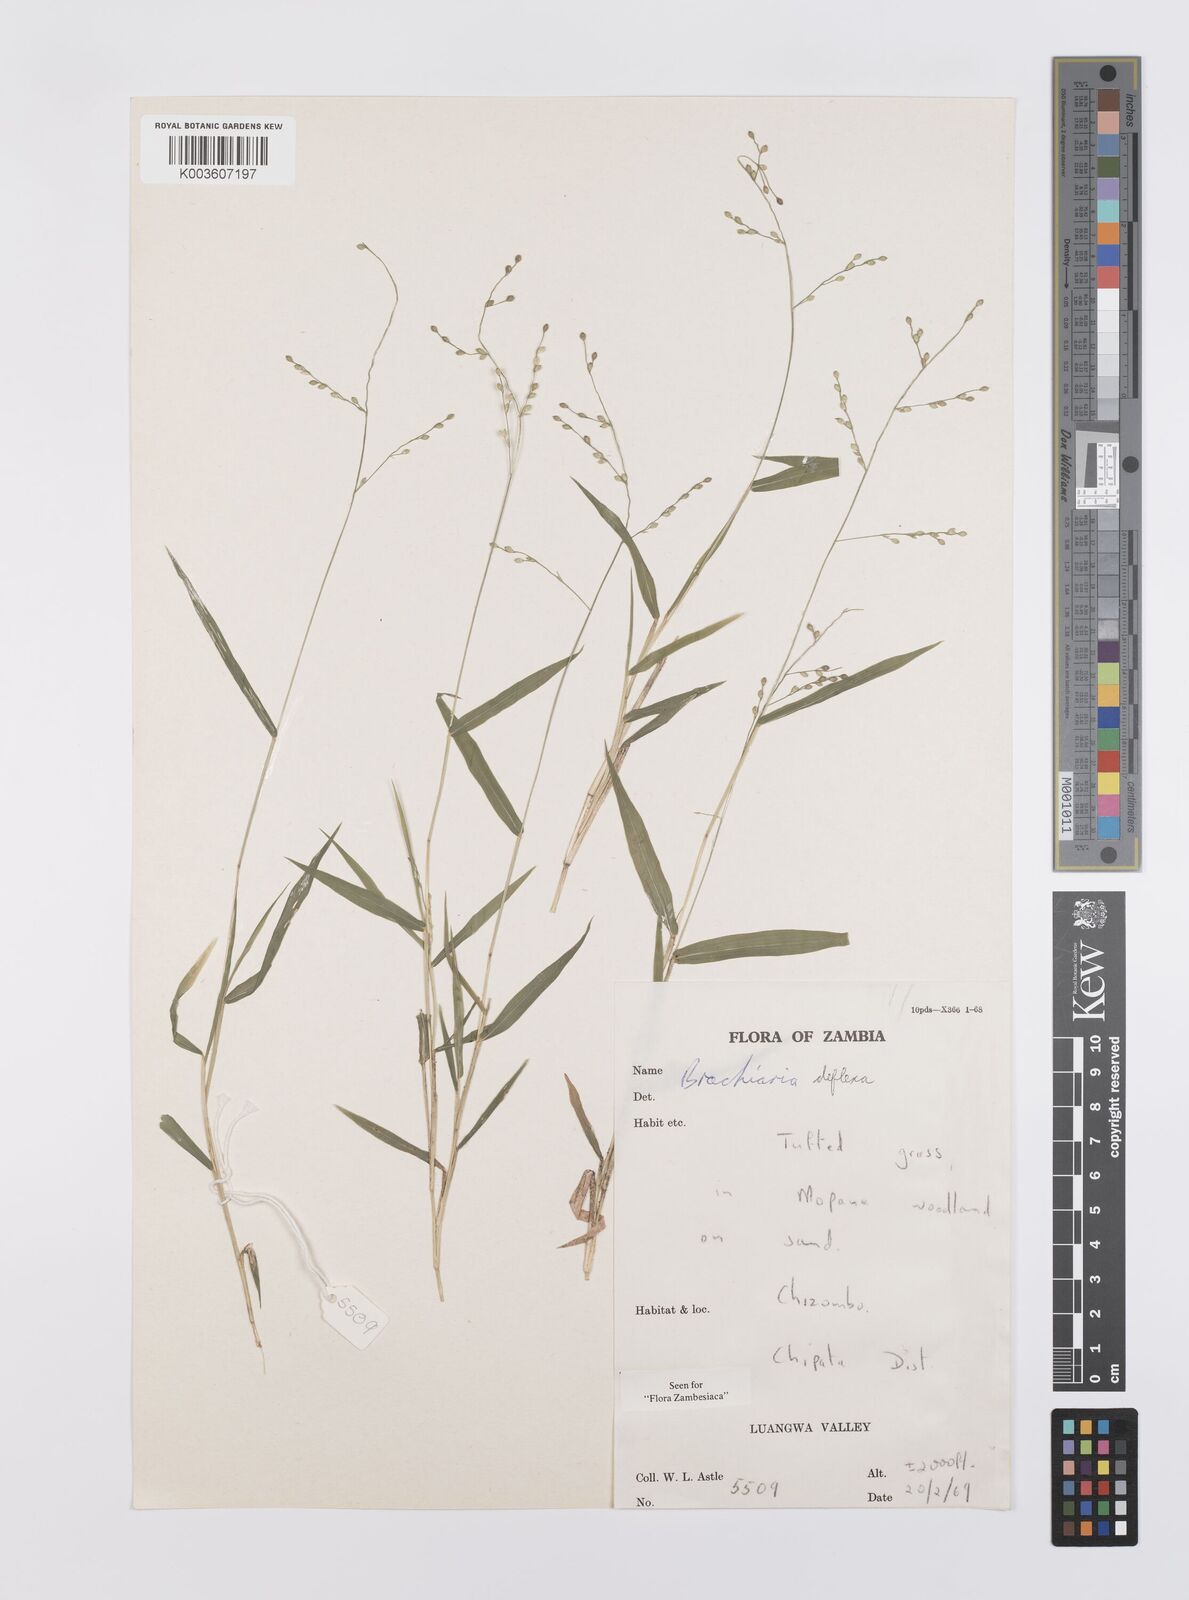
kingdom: Plantae
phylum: Tracheophyta
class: Liliopsida
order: Poales
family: Poaceae
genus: Urochloa
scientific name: Urochloa deflexa
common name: Guinea millet
